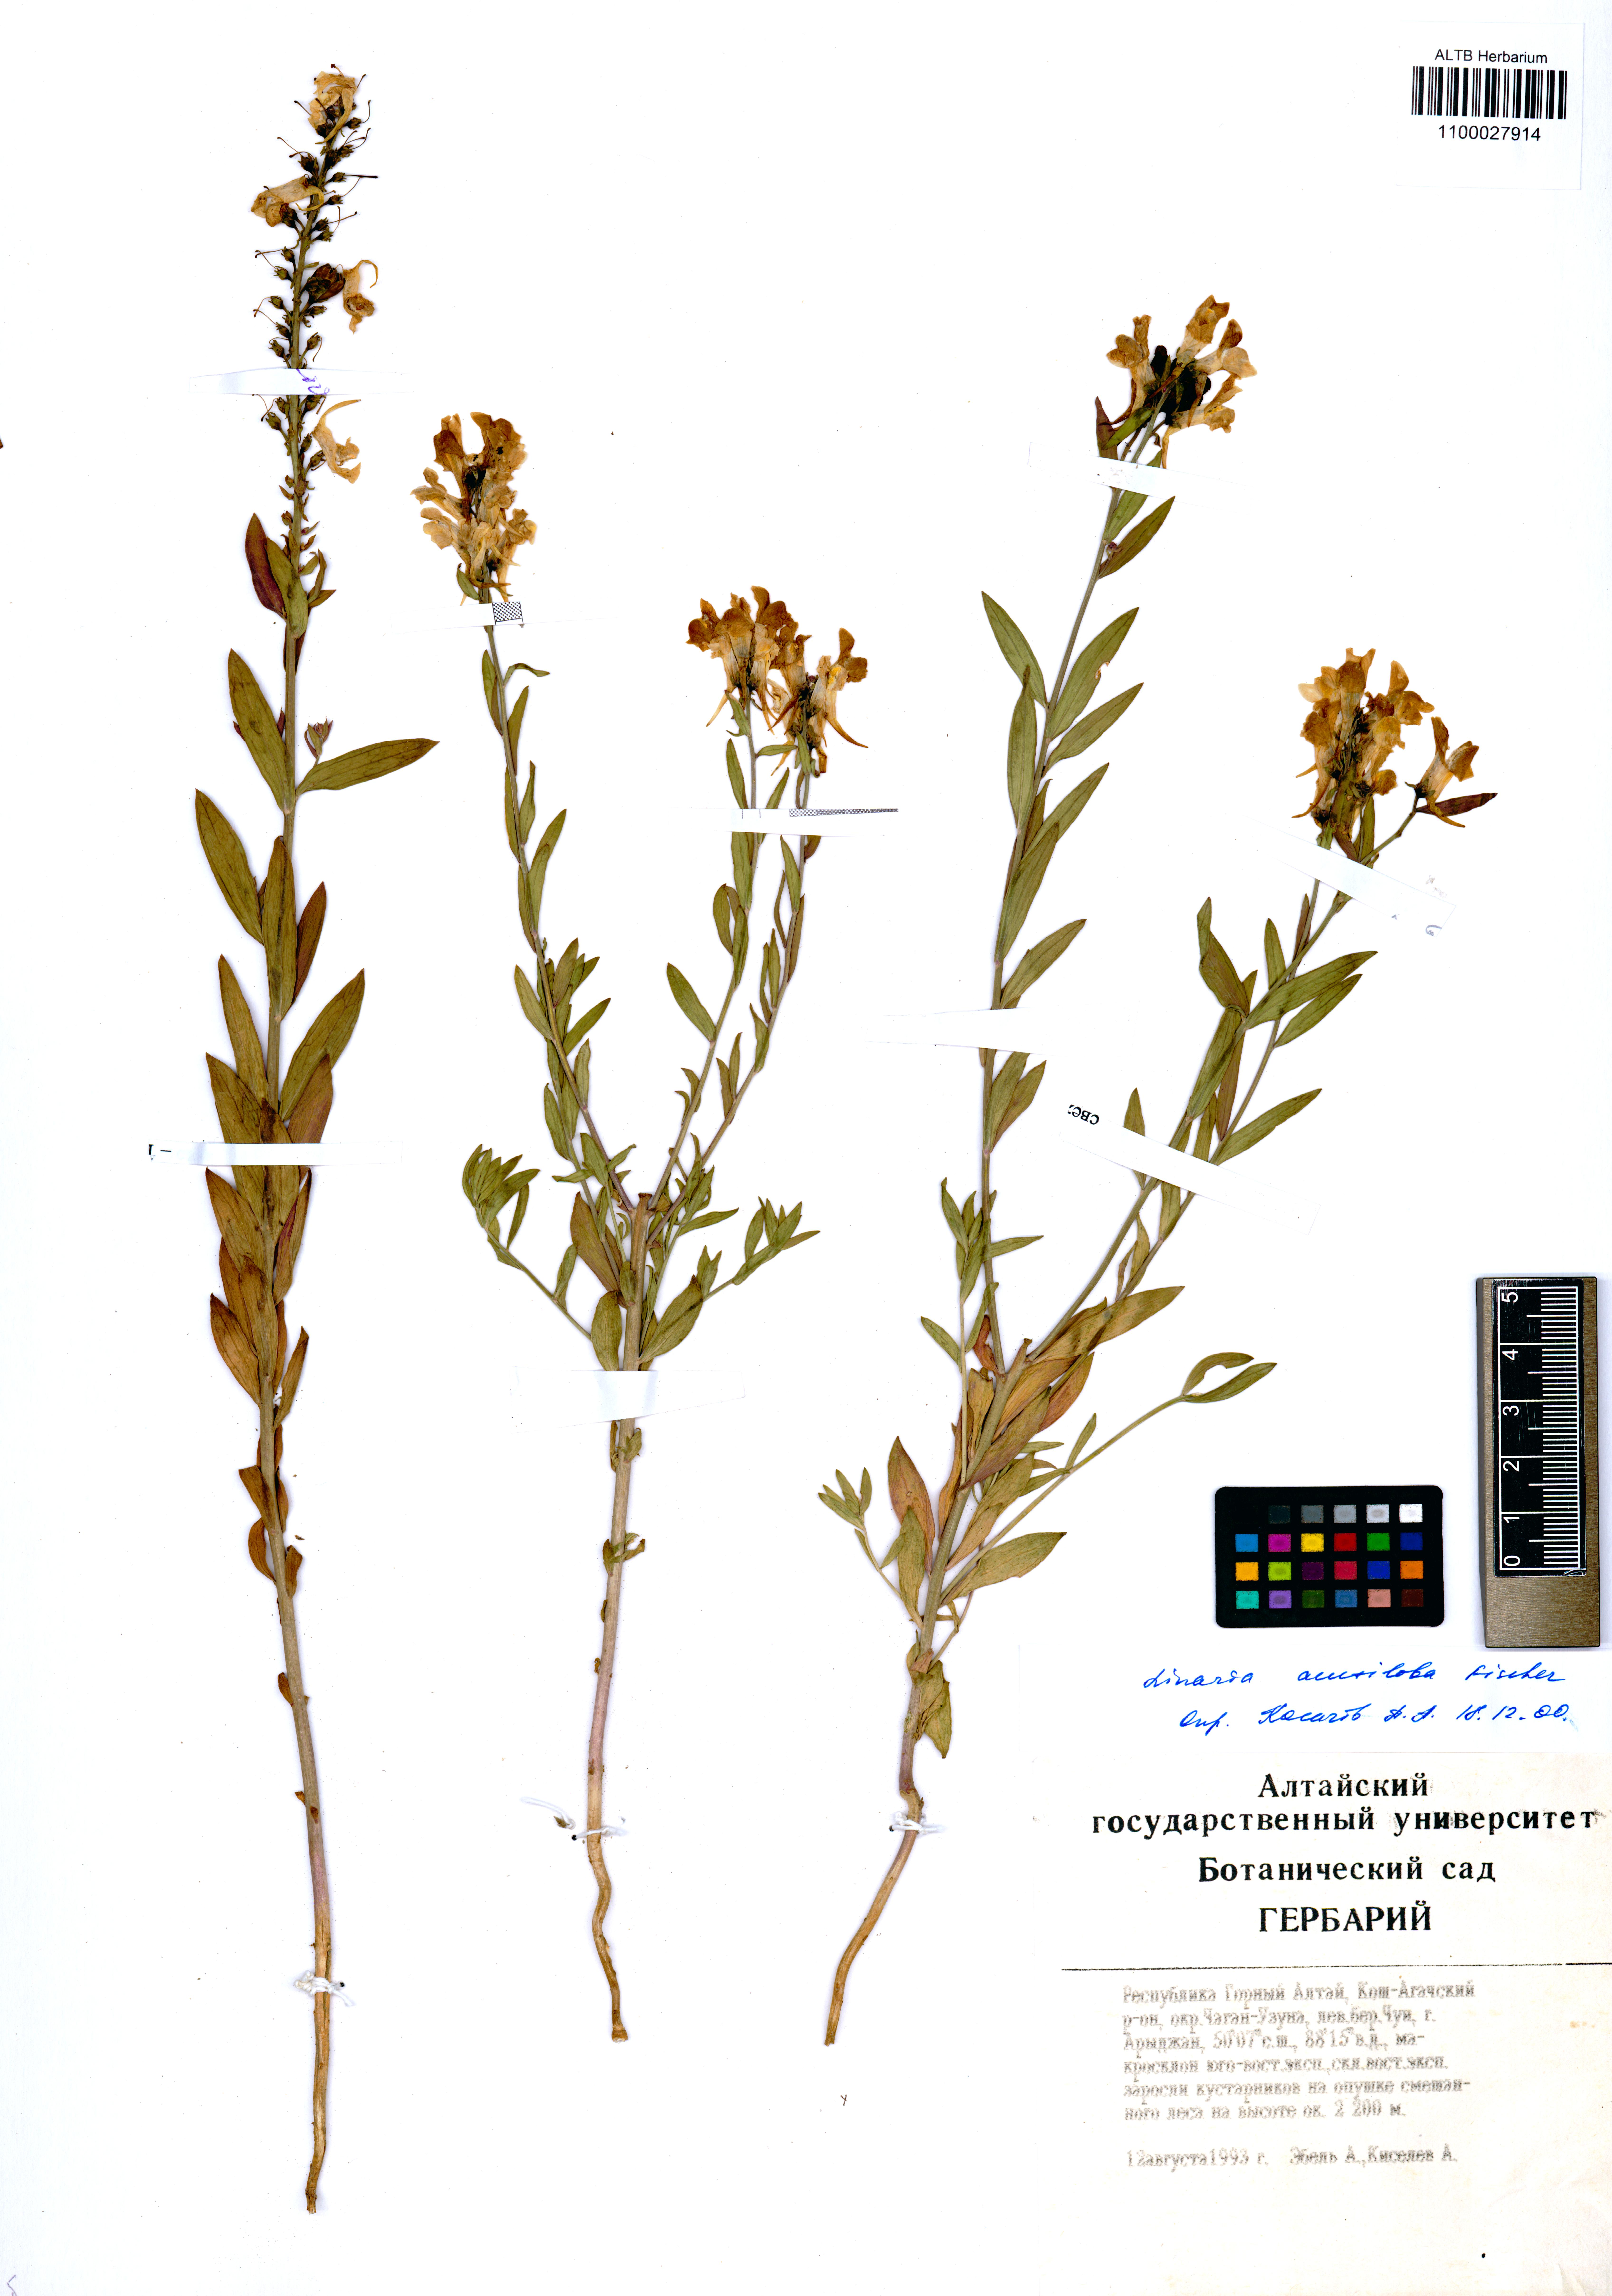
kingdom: Plantae
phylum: Tracheophyta
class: Magnoliopsida
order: Lamiales
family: Plantaginaceae
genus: Linaria
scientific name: Linaria acutiloba
